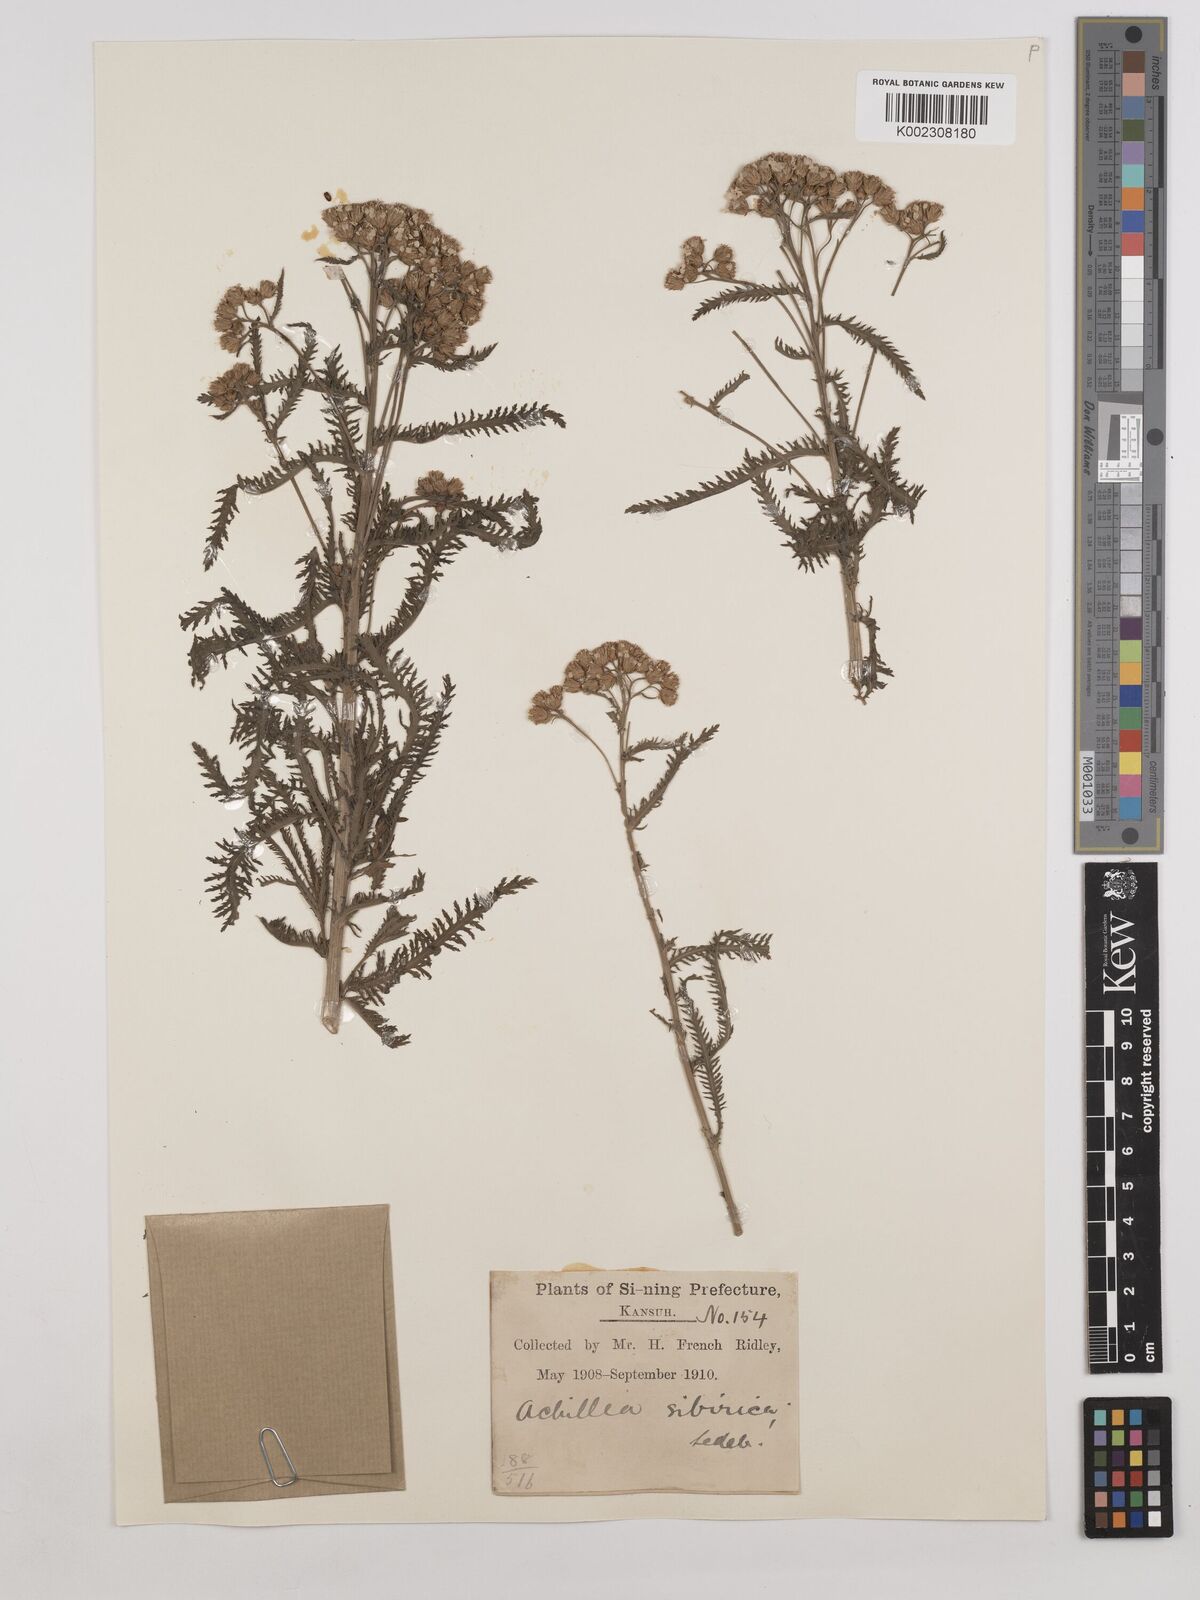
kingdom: Plantae
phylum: Tracheophyta
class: Magnoliopsida
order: Asterales
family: Asteraceae
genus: Achillea
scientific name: Achillea alpina
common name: Siberian yarrow
